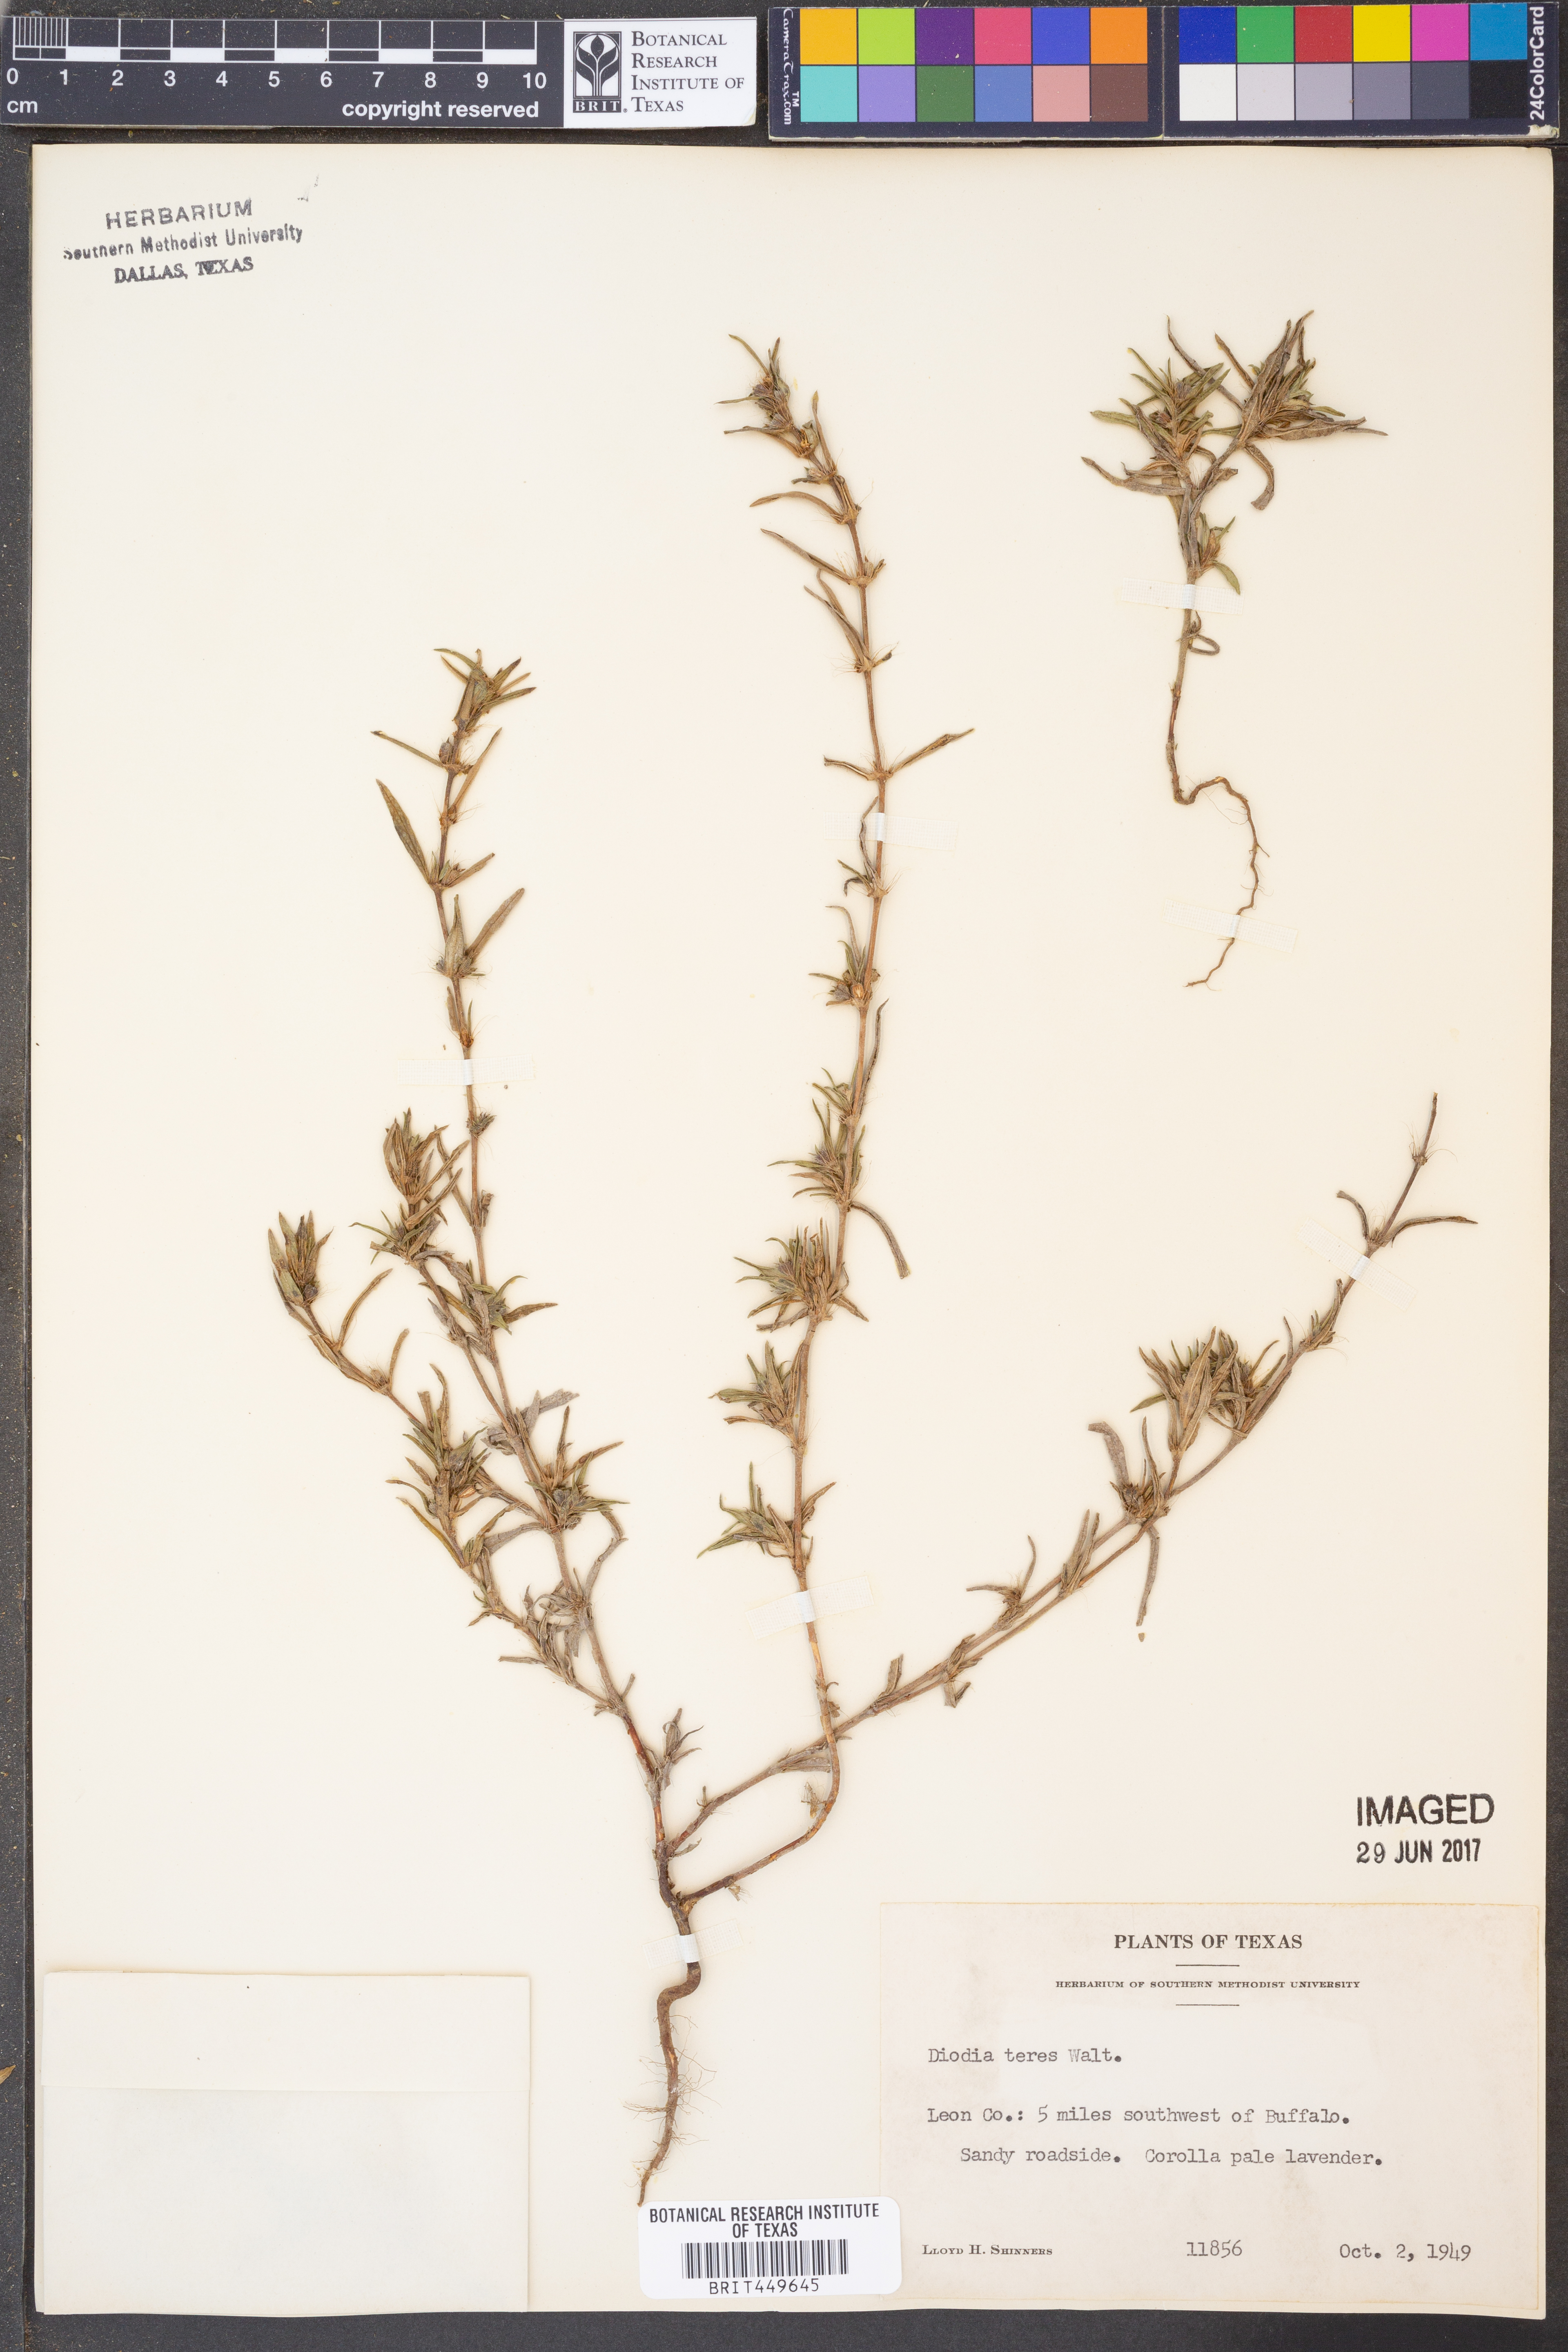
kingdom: Plantae
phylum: Tracheophyta
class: Magnoliopsida
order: Gentianales
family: Rubiaceae
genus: Hexasepalum
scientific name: Hexasepalum teres
